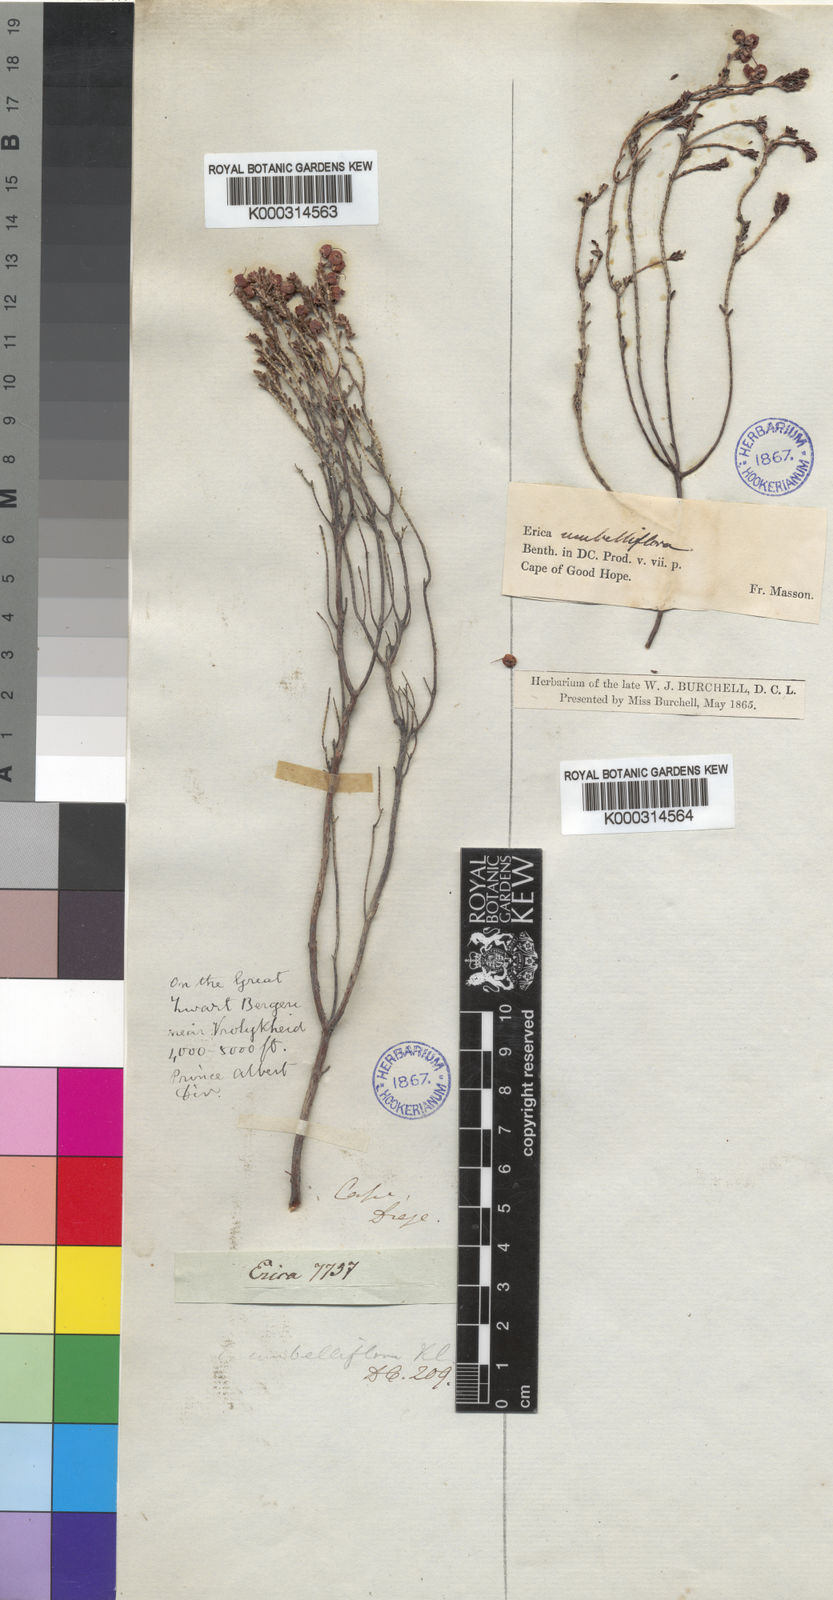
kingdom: Plantae
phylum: Tracheophyta
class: Magnoliopsida
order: Ericales
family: Ericaceae
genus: Erica
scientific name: Erica umbelliflora
